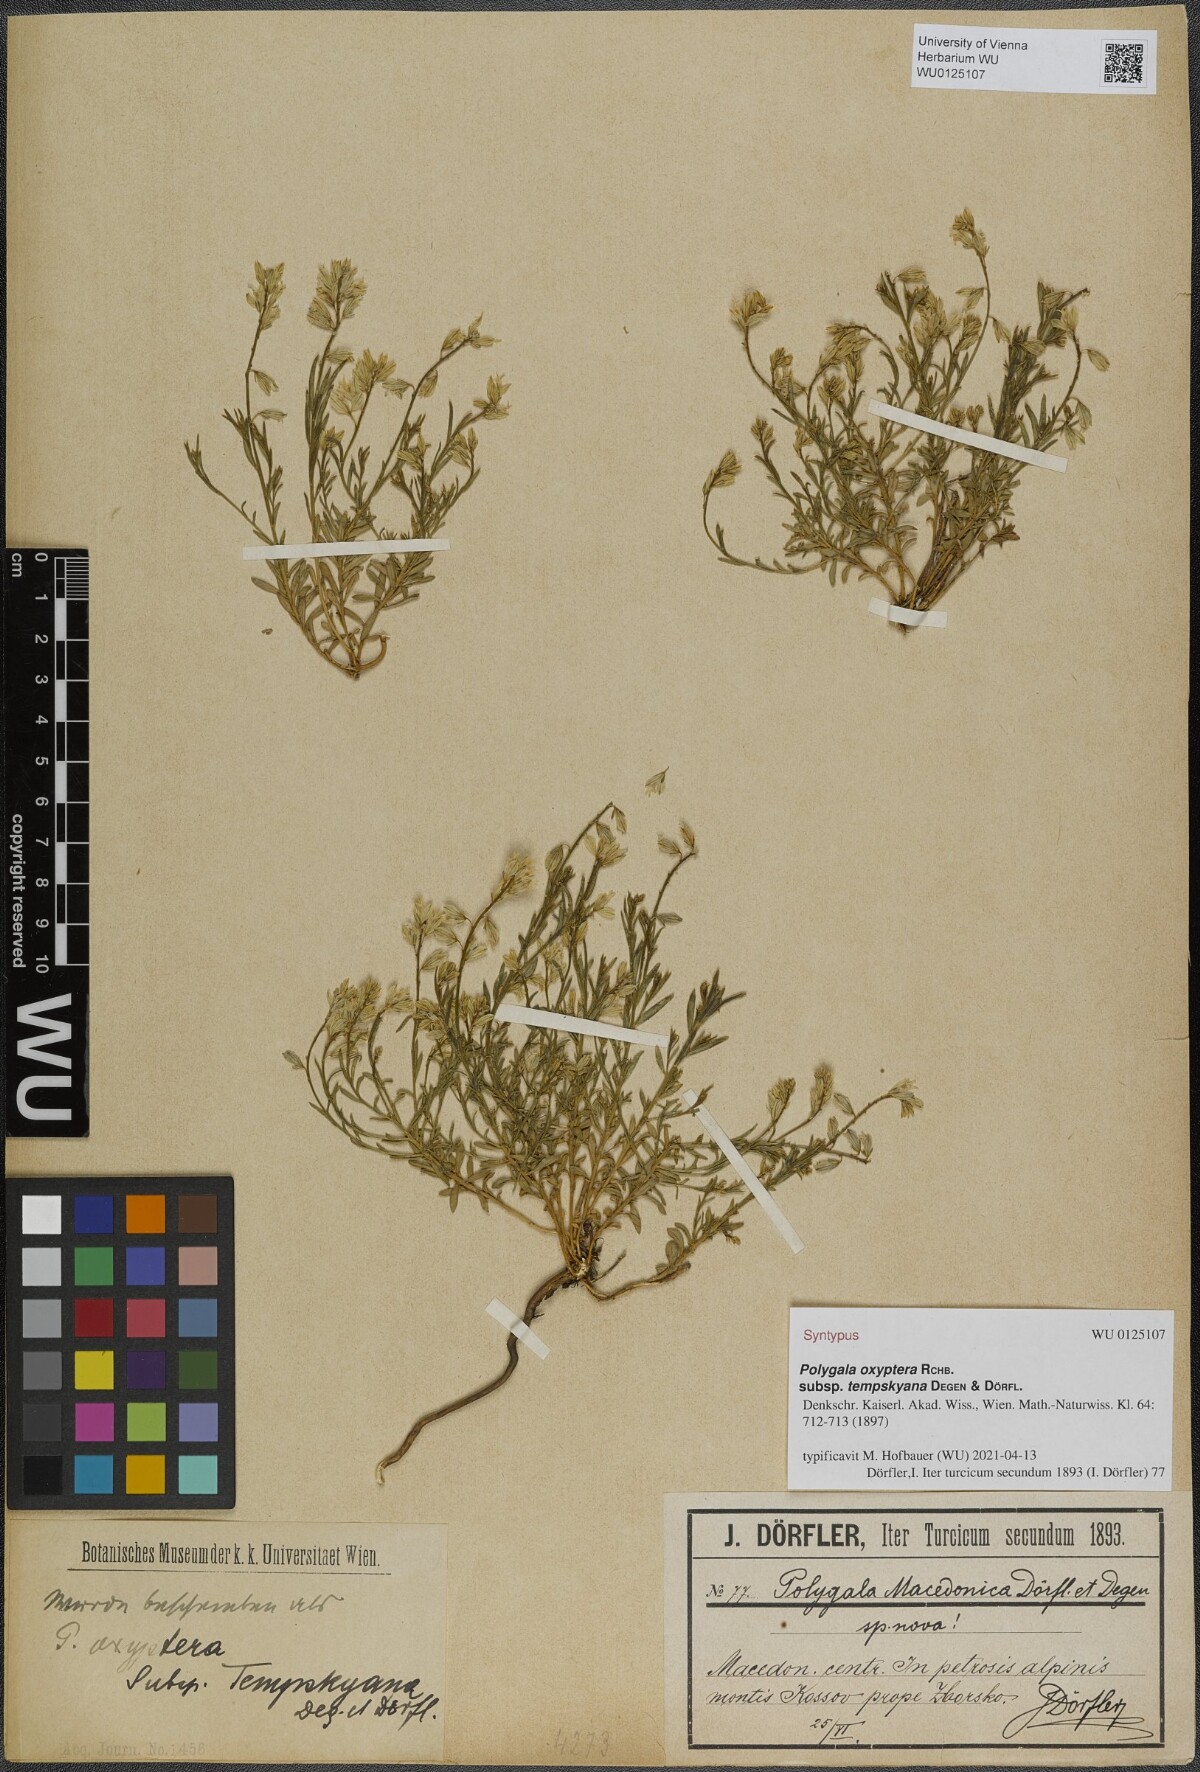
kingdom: Plantae
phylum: Tracheophyta
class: Magnoliopsida
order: Fabales
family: Polygalaceae
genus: Polygala
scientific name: Polygala vulgaris
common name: Common milkwort
